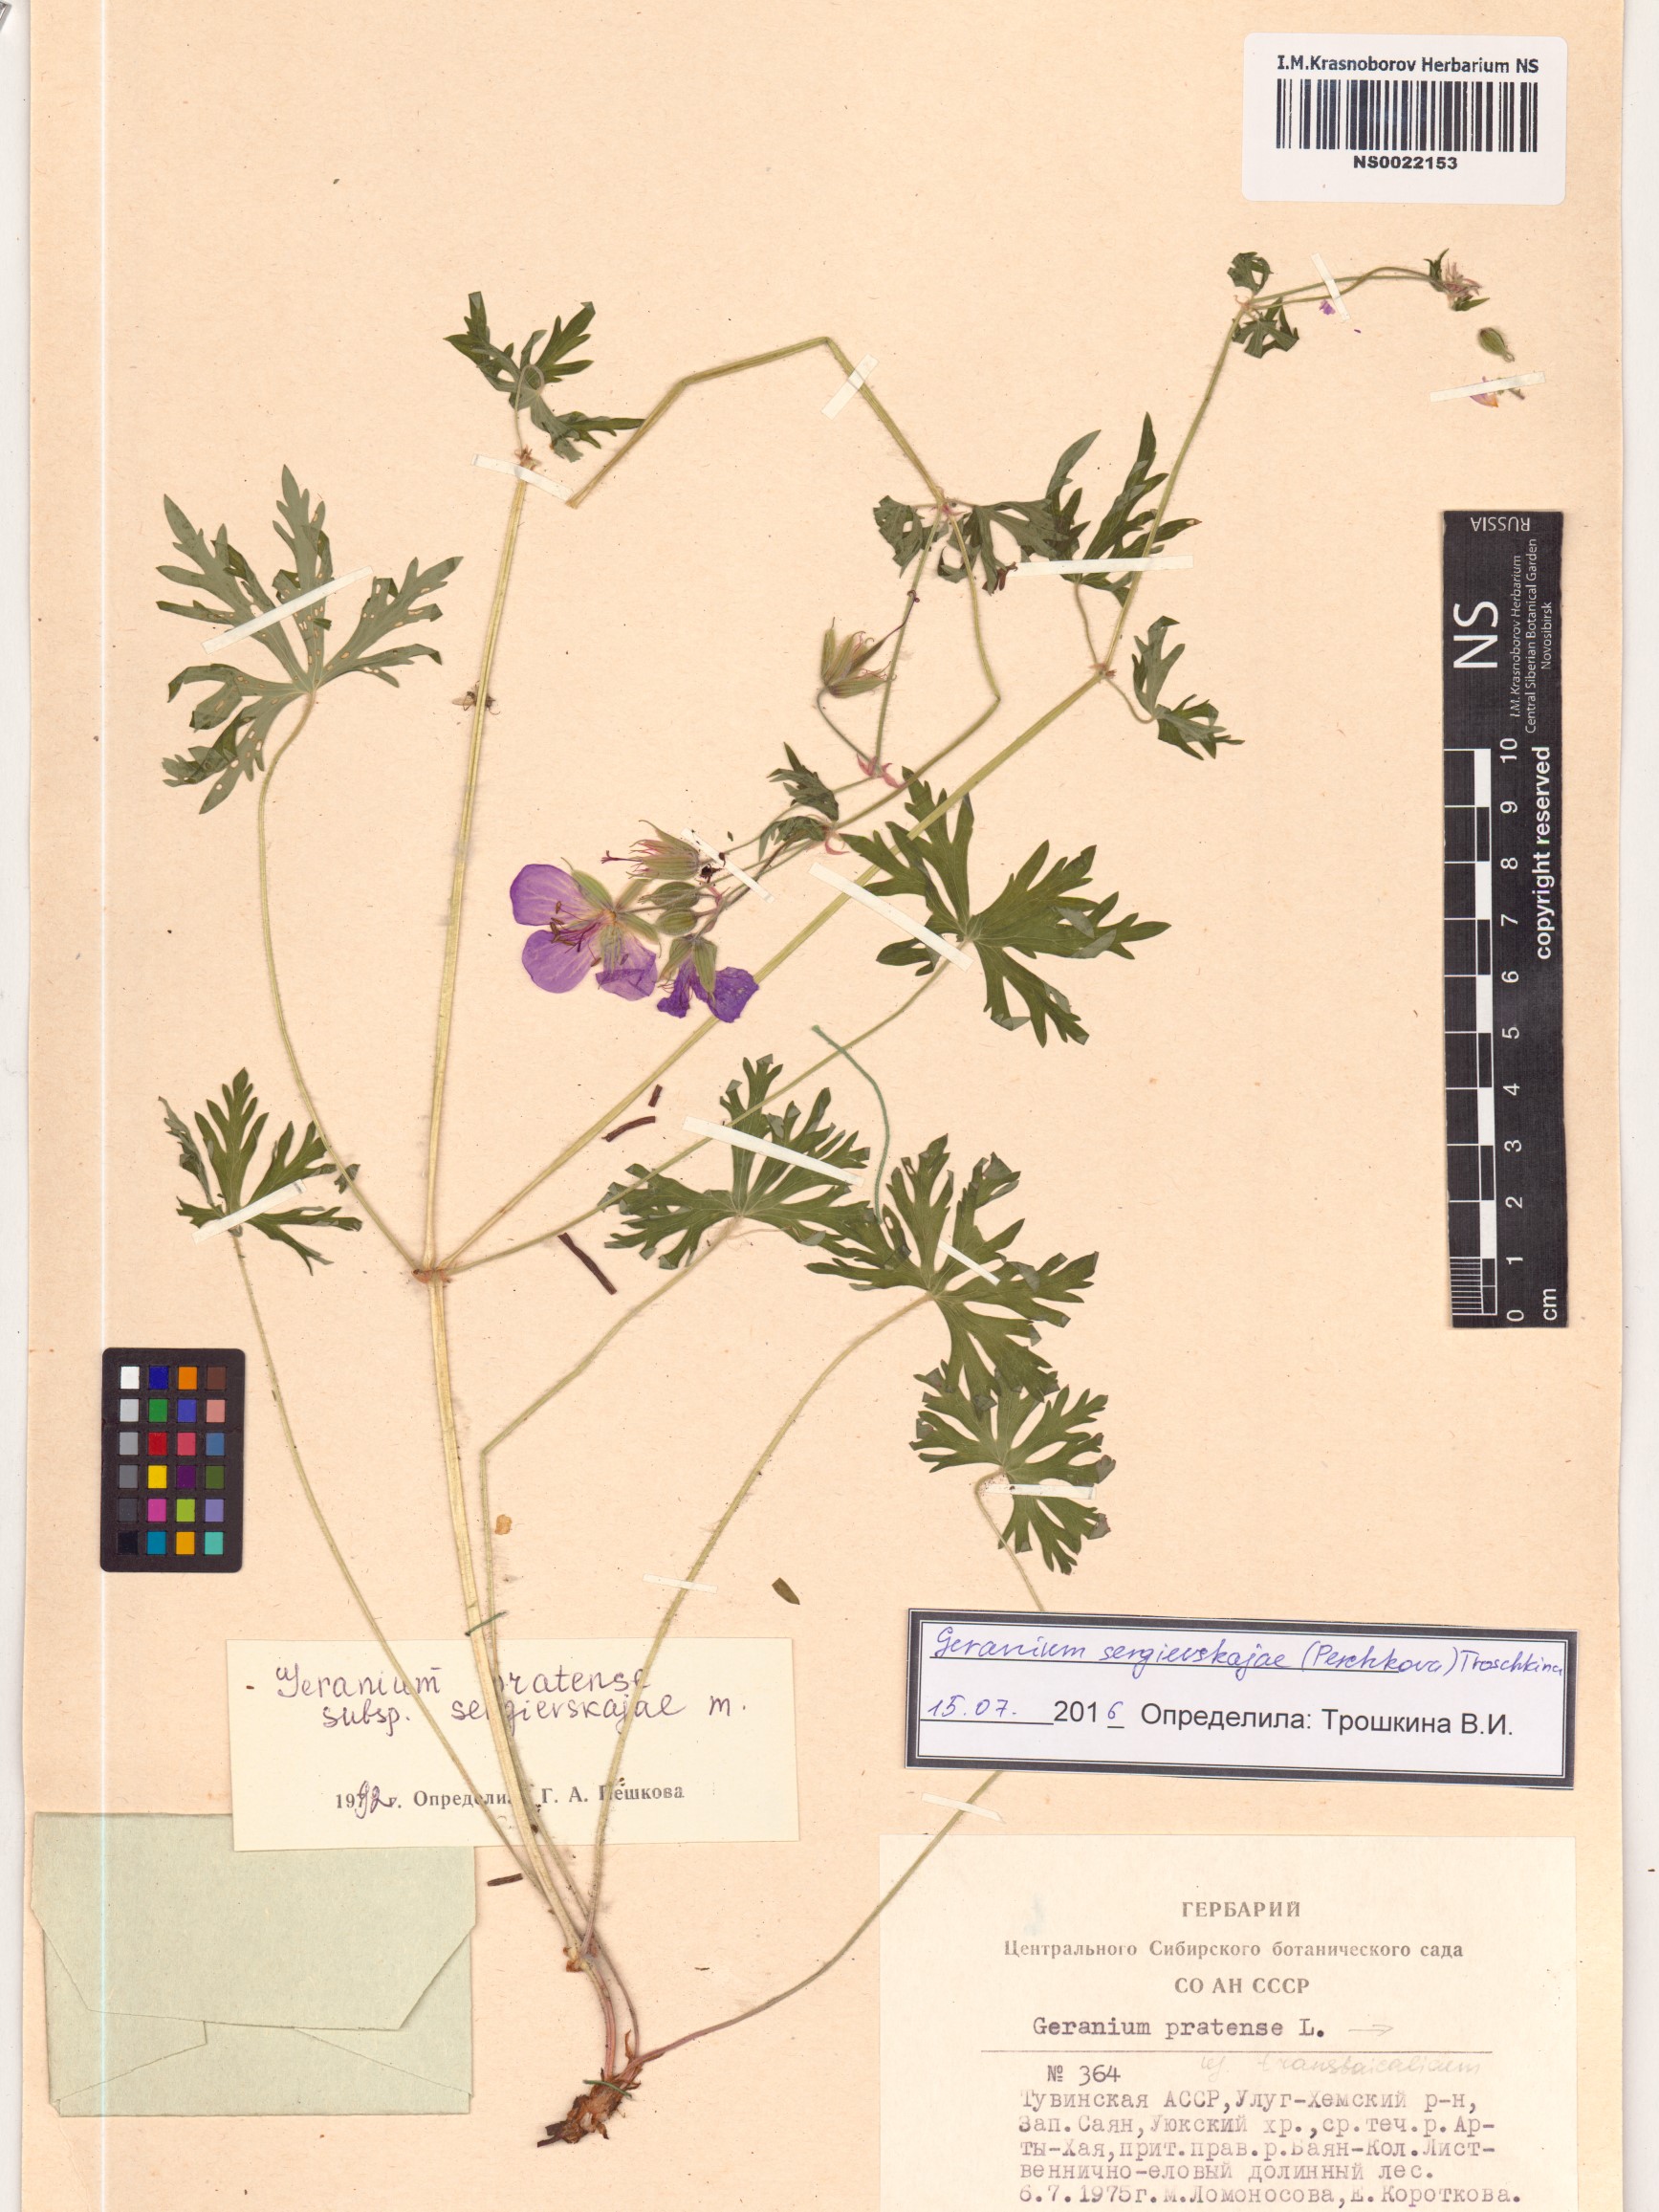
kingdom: Plantae
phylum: Tracheophyta
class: Magnoliopsida
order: Geraniales
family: Geraniaceae
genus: Geranium
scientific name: Geranium pratense
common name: Meadow crane's-bill
